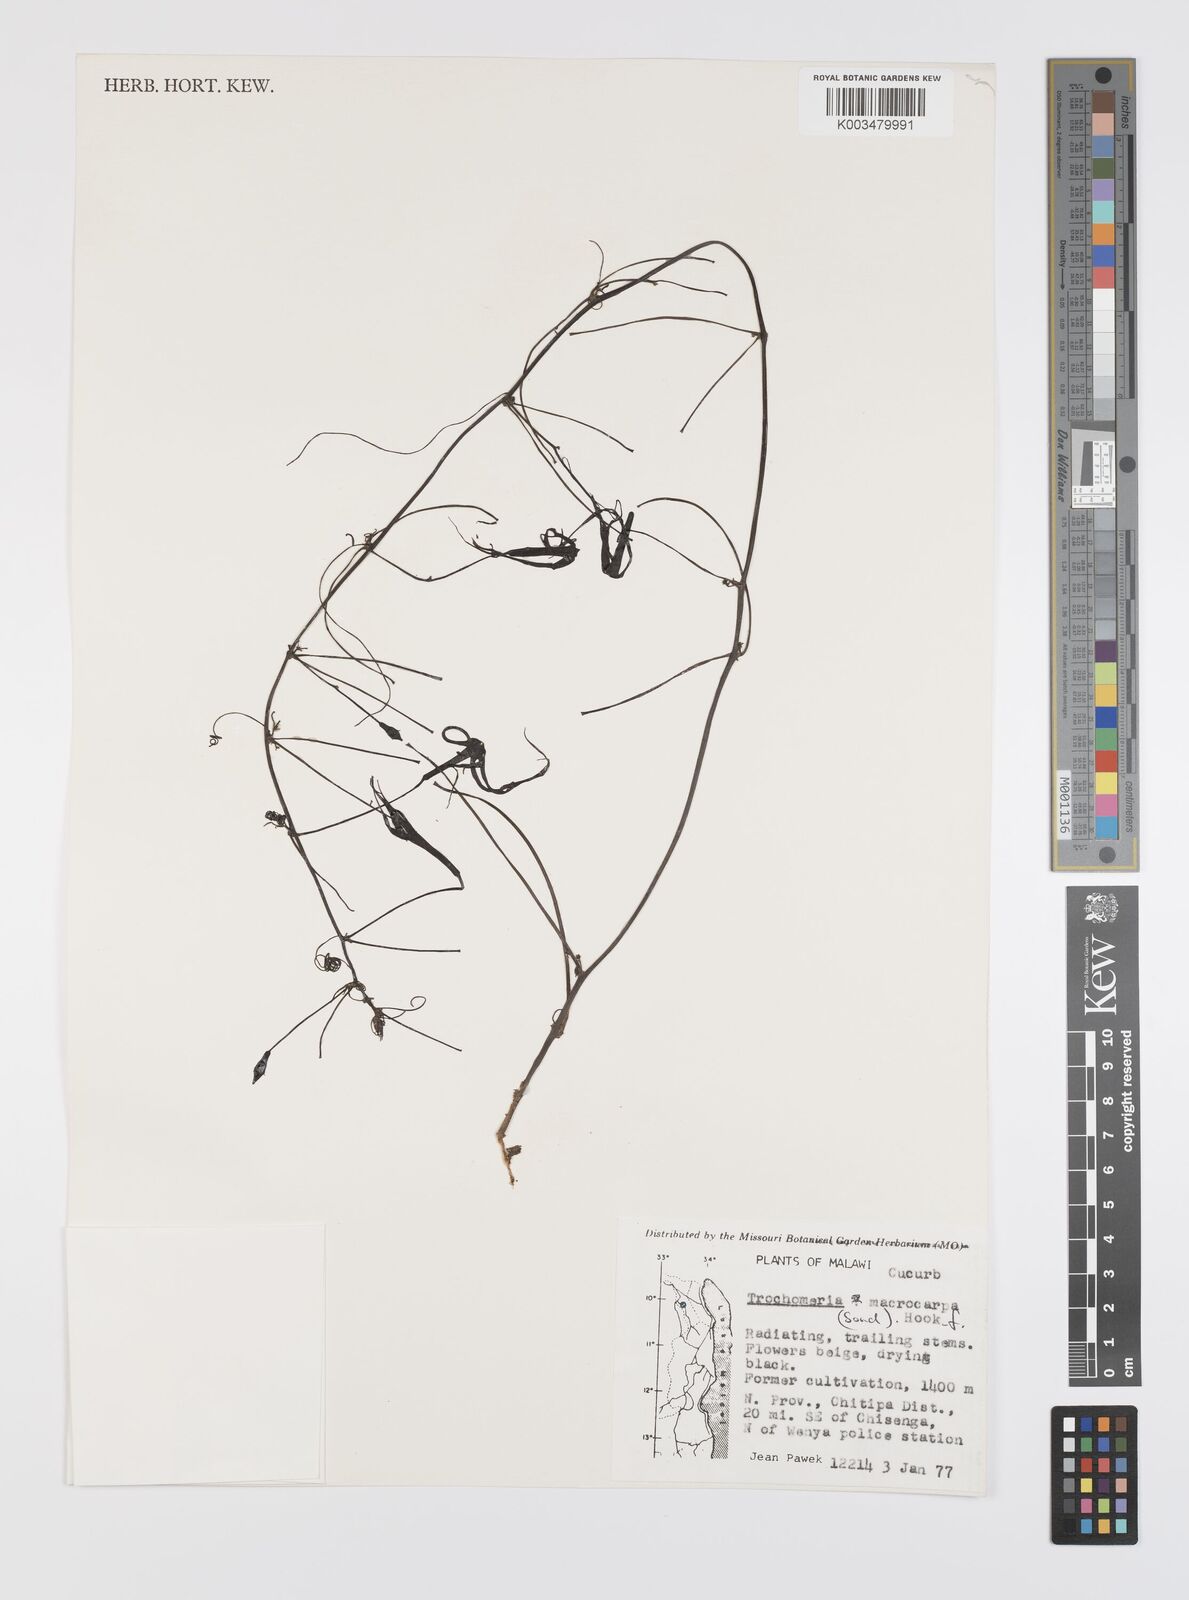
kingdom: Plantae
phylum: Tracheophyta
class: Magnoliopsida
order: Cucurbitales
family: Cucurbitaceae
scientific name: Cucurbitaceae
